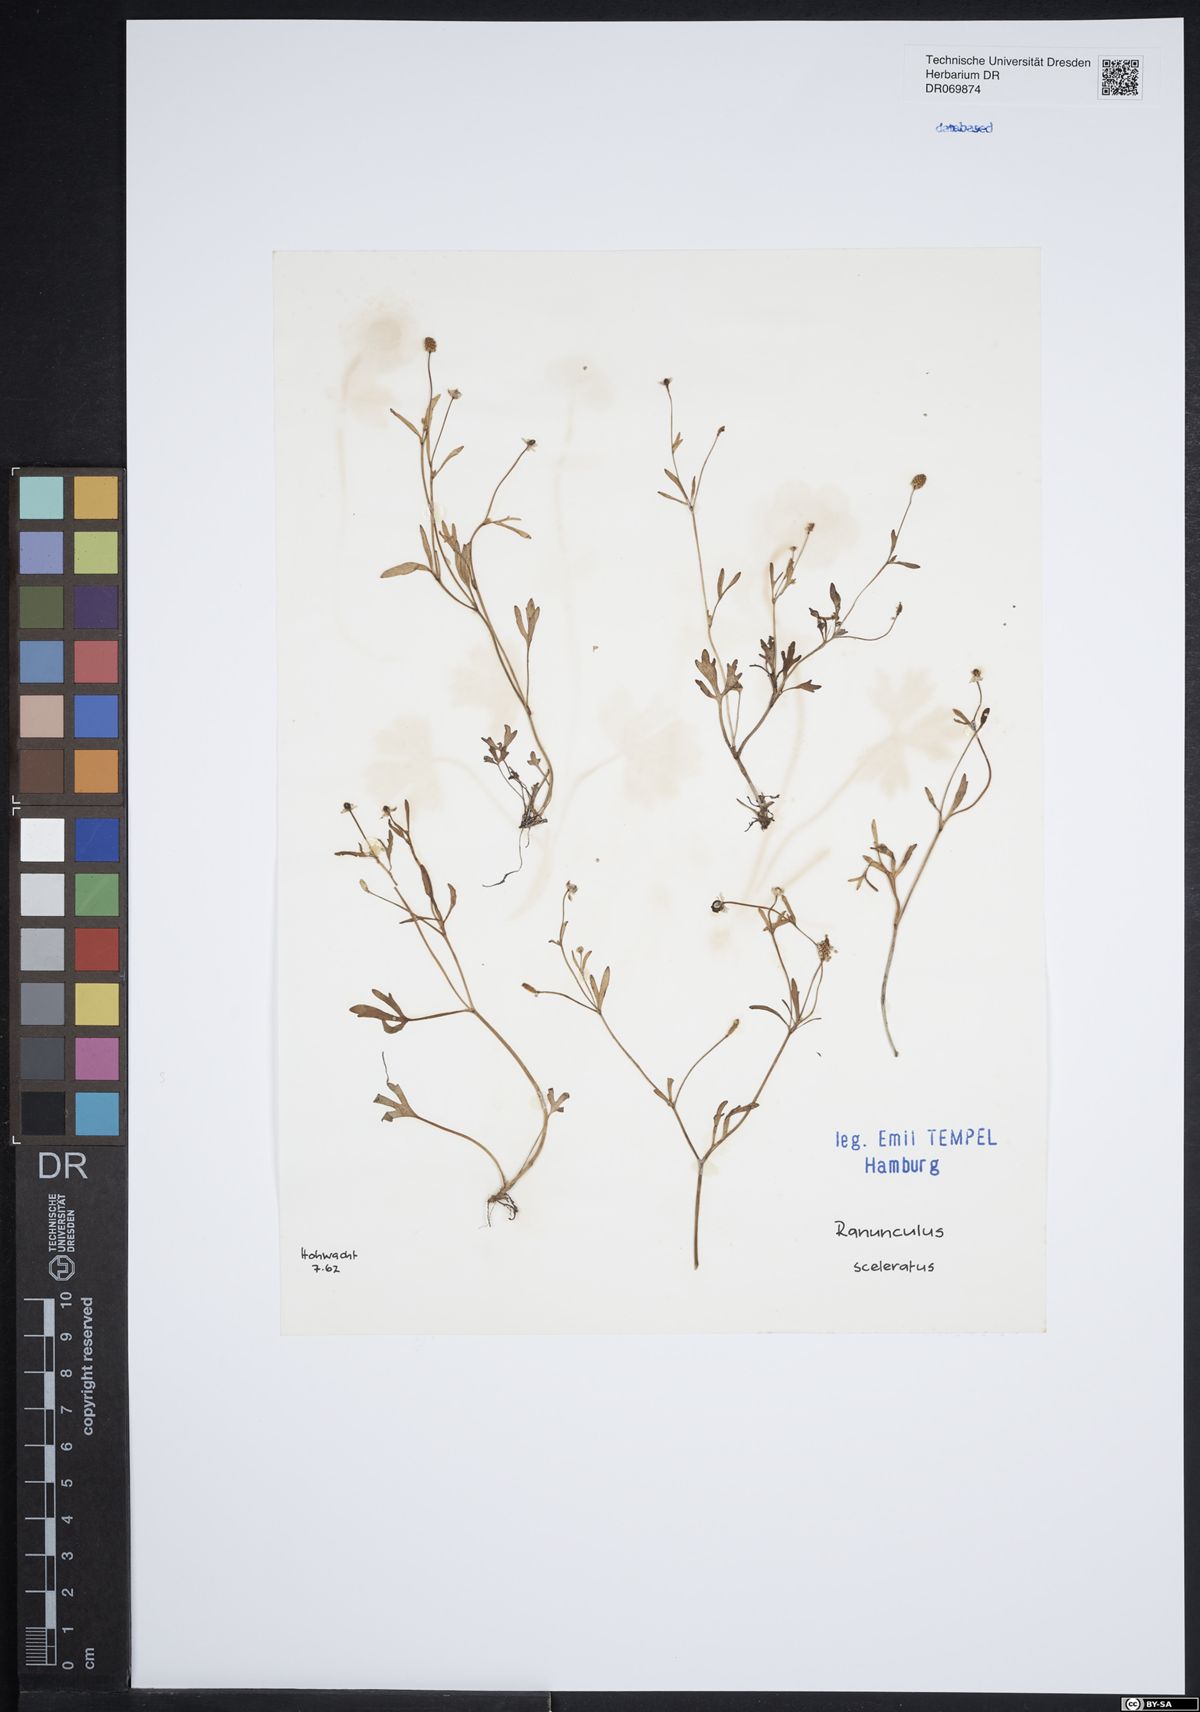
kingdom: Plantae
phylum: Tracheophyta
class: Magnoliopsida
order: Ranunculales
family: Ranunculaceae
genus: Ranunculus
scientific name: Ranunculus sceleratus
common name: Celery-leaved buttercup
